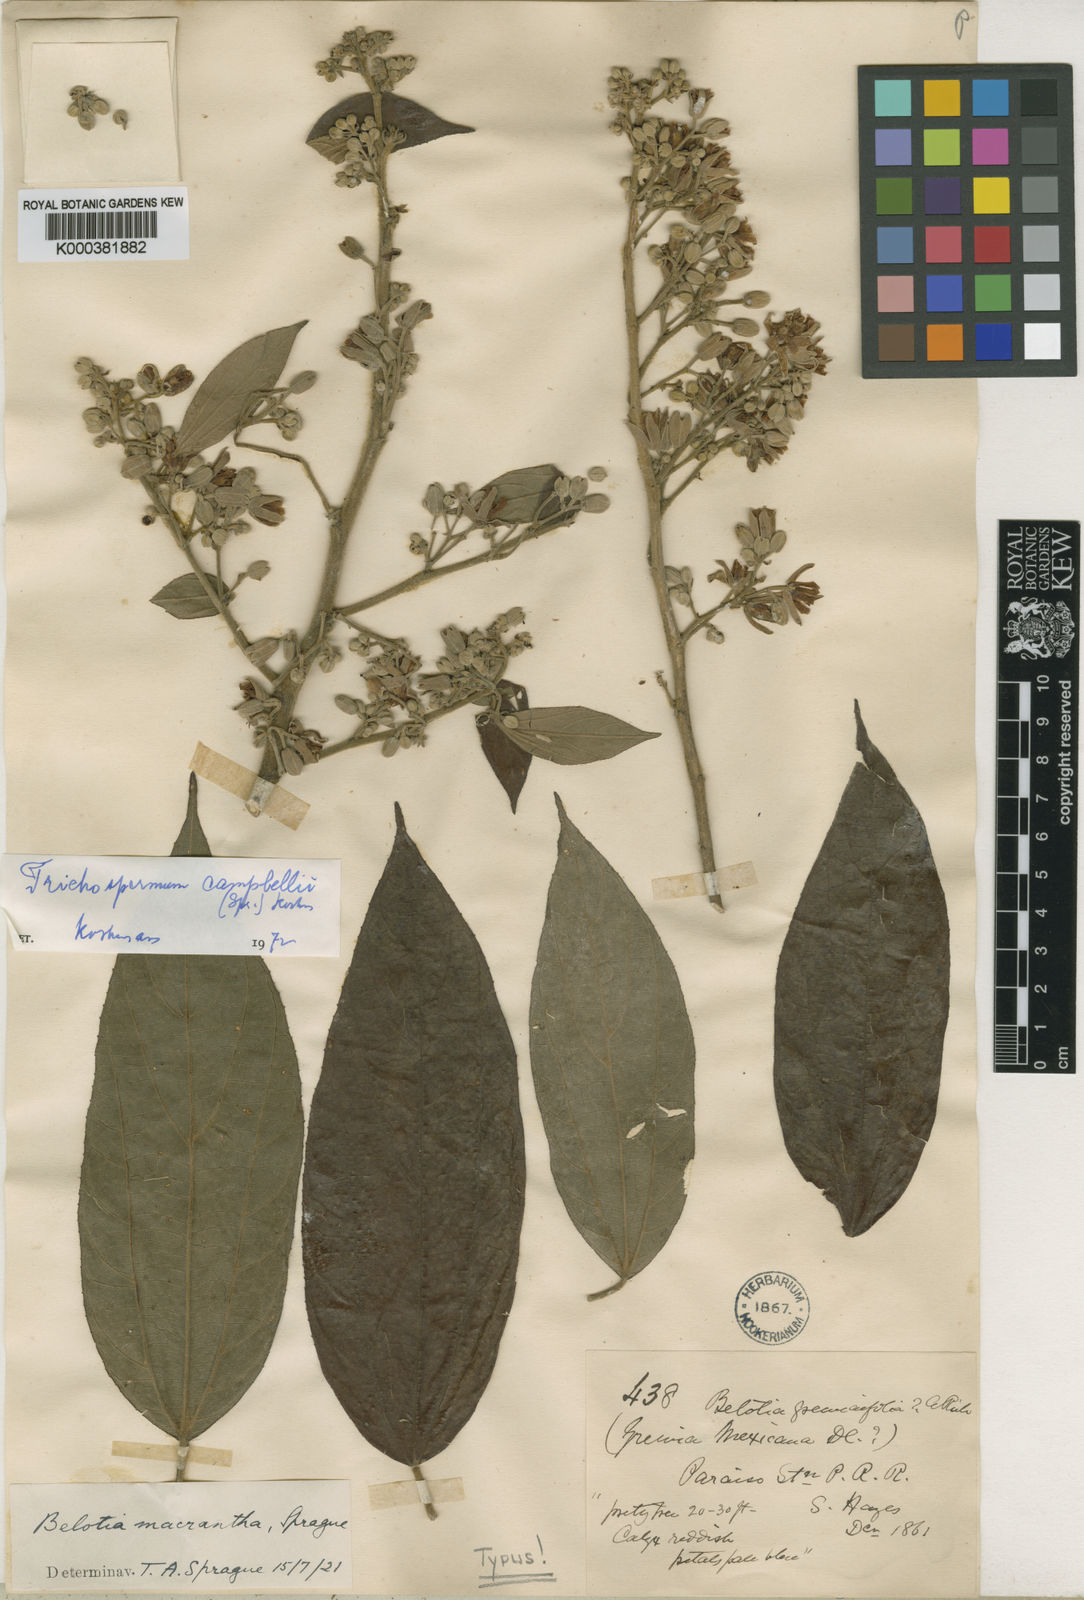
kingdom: Plantae
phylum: Tracheophyta
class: Magnoliopsida
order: Malvales
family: Malvaceae
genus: Trichospermum
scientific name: Trichospermum
